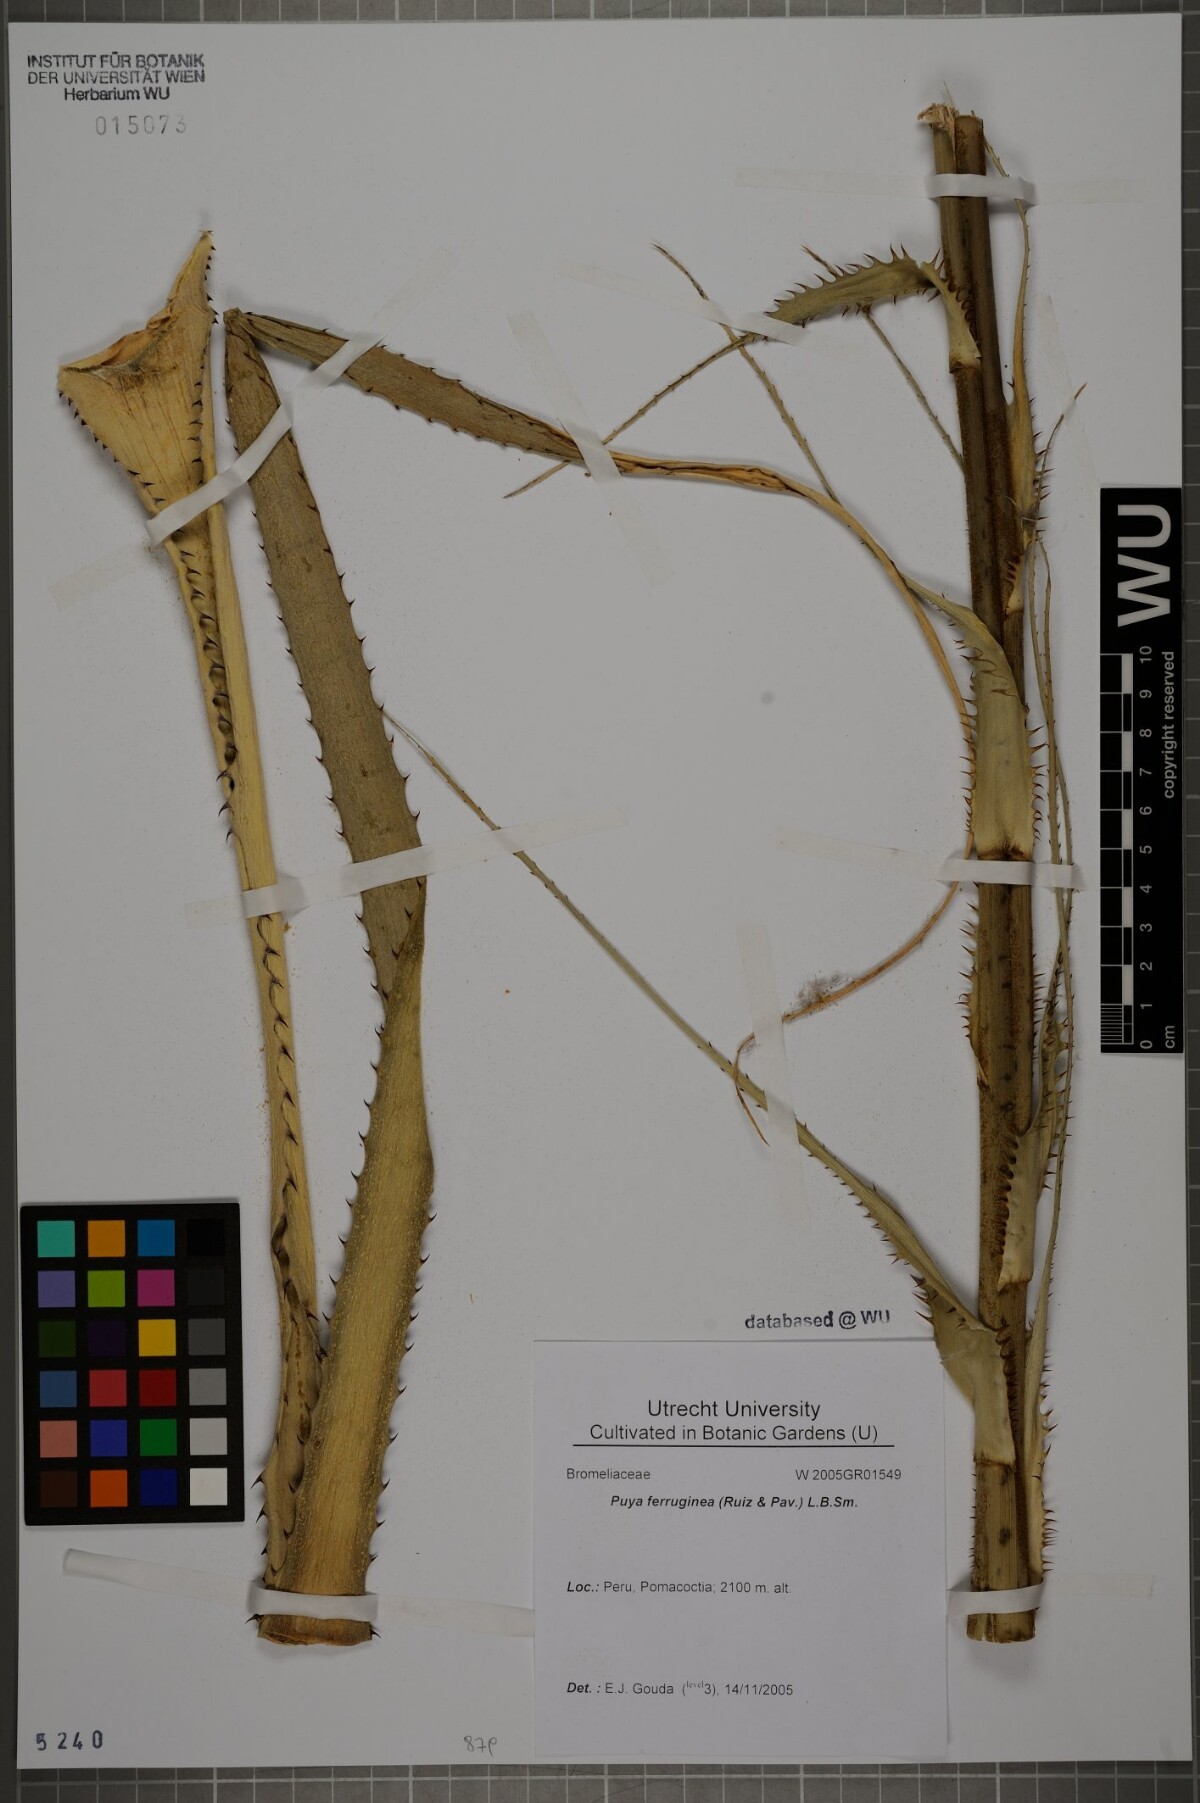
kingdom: Plantae
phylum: Tracheophyta
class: Liliopsida
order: Poales
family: Bromeliaceae
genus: Puya
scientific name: Puya ferruginea
